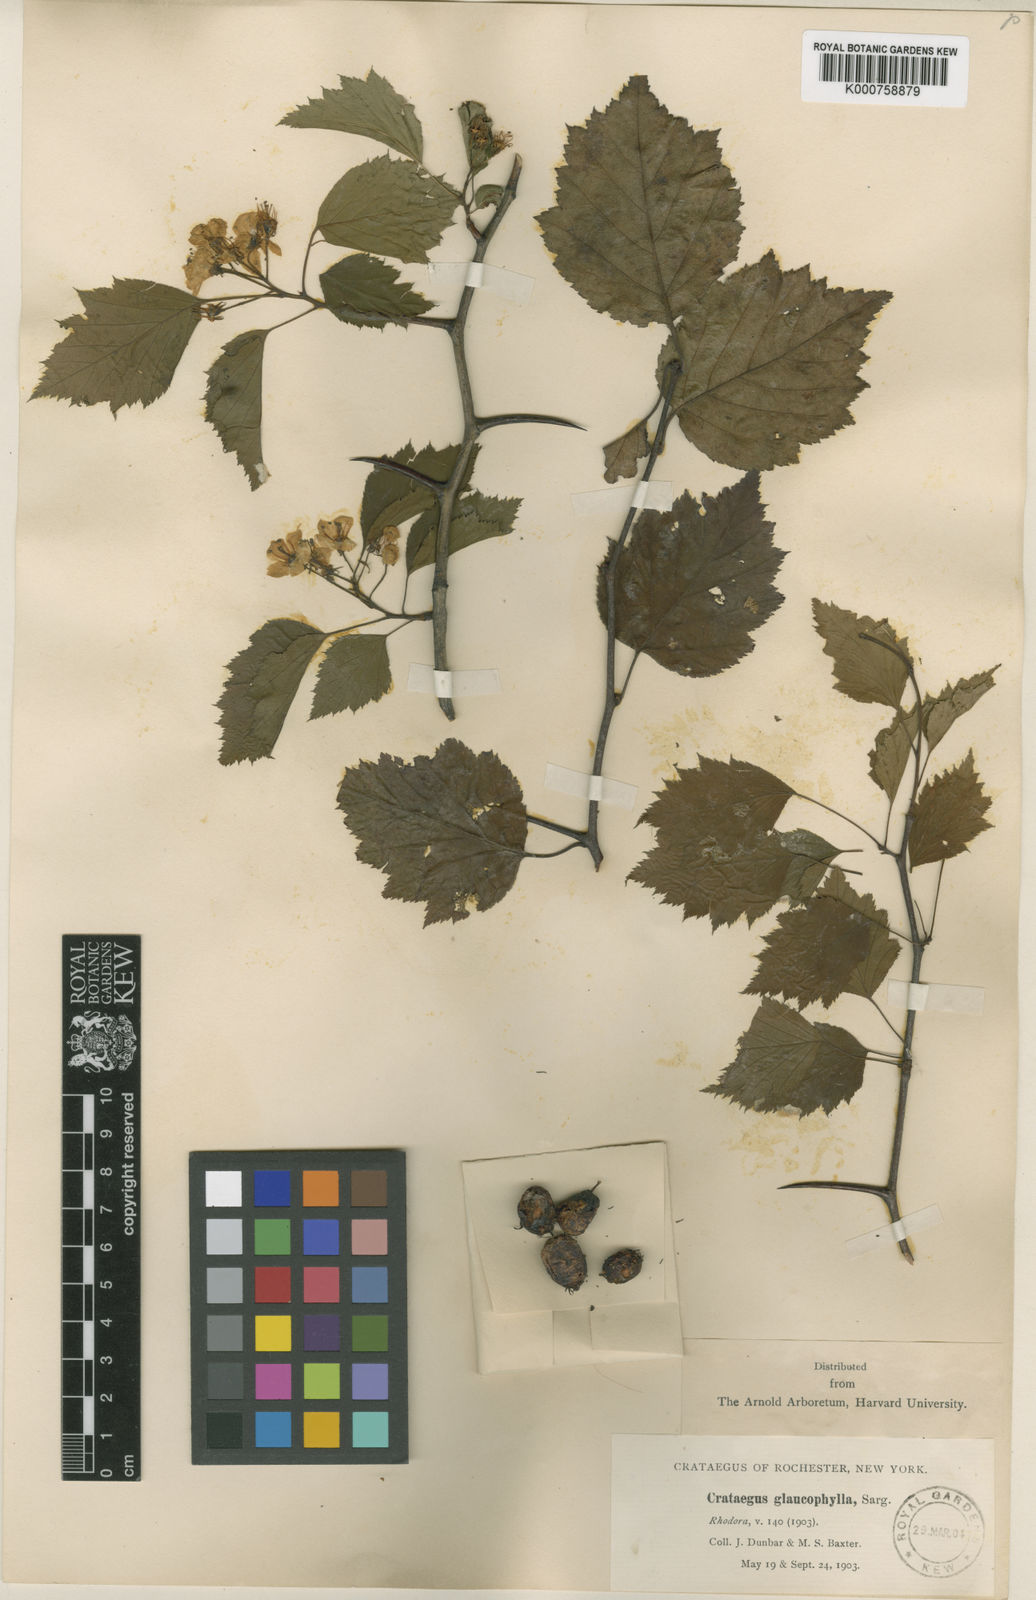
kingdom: Plantae
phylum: Tracheophyta
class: Magnoliopsida
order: Rosales
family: Rosaceae
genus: Crataegus
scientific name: Crataegus macrosperma
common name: Variable hawthorn
